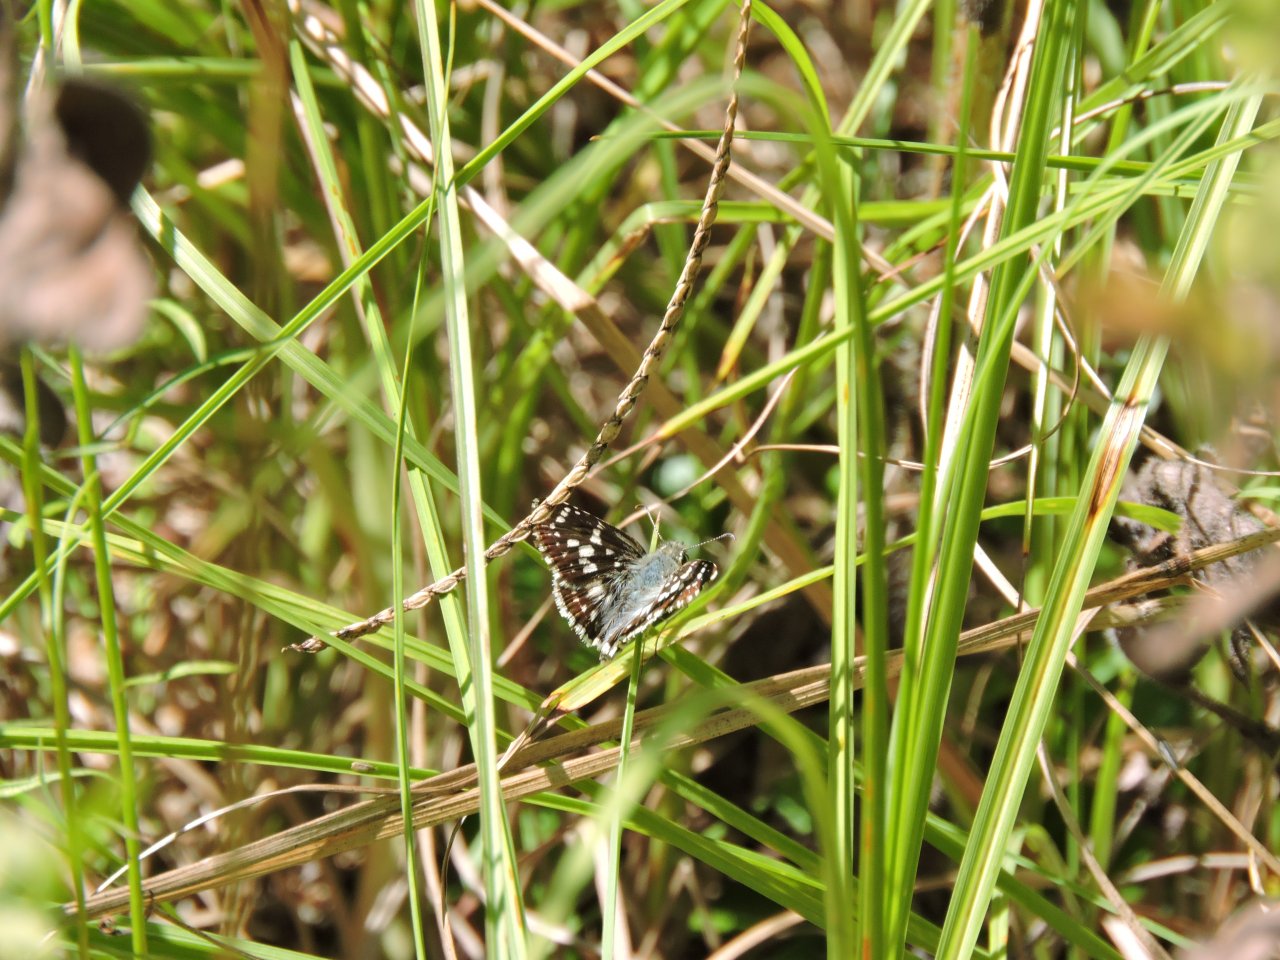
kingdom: Animalia
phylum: Arthropoda
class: Insecta
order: Lepidoptera
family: Hesperiidae
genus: Pyrgus
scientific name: Pyrgus
